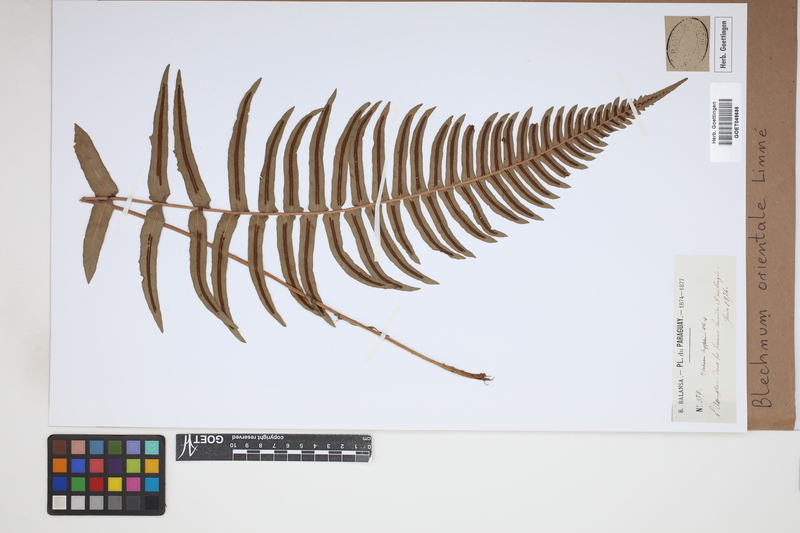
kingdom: Plantae
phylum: Tracheophyta
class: Polypodiopsida
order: Polypodiales
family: Blechnaceae
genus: Blechnopsis
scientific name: Blechnopsis orientalis
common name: Oriental blechnum
